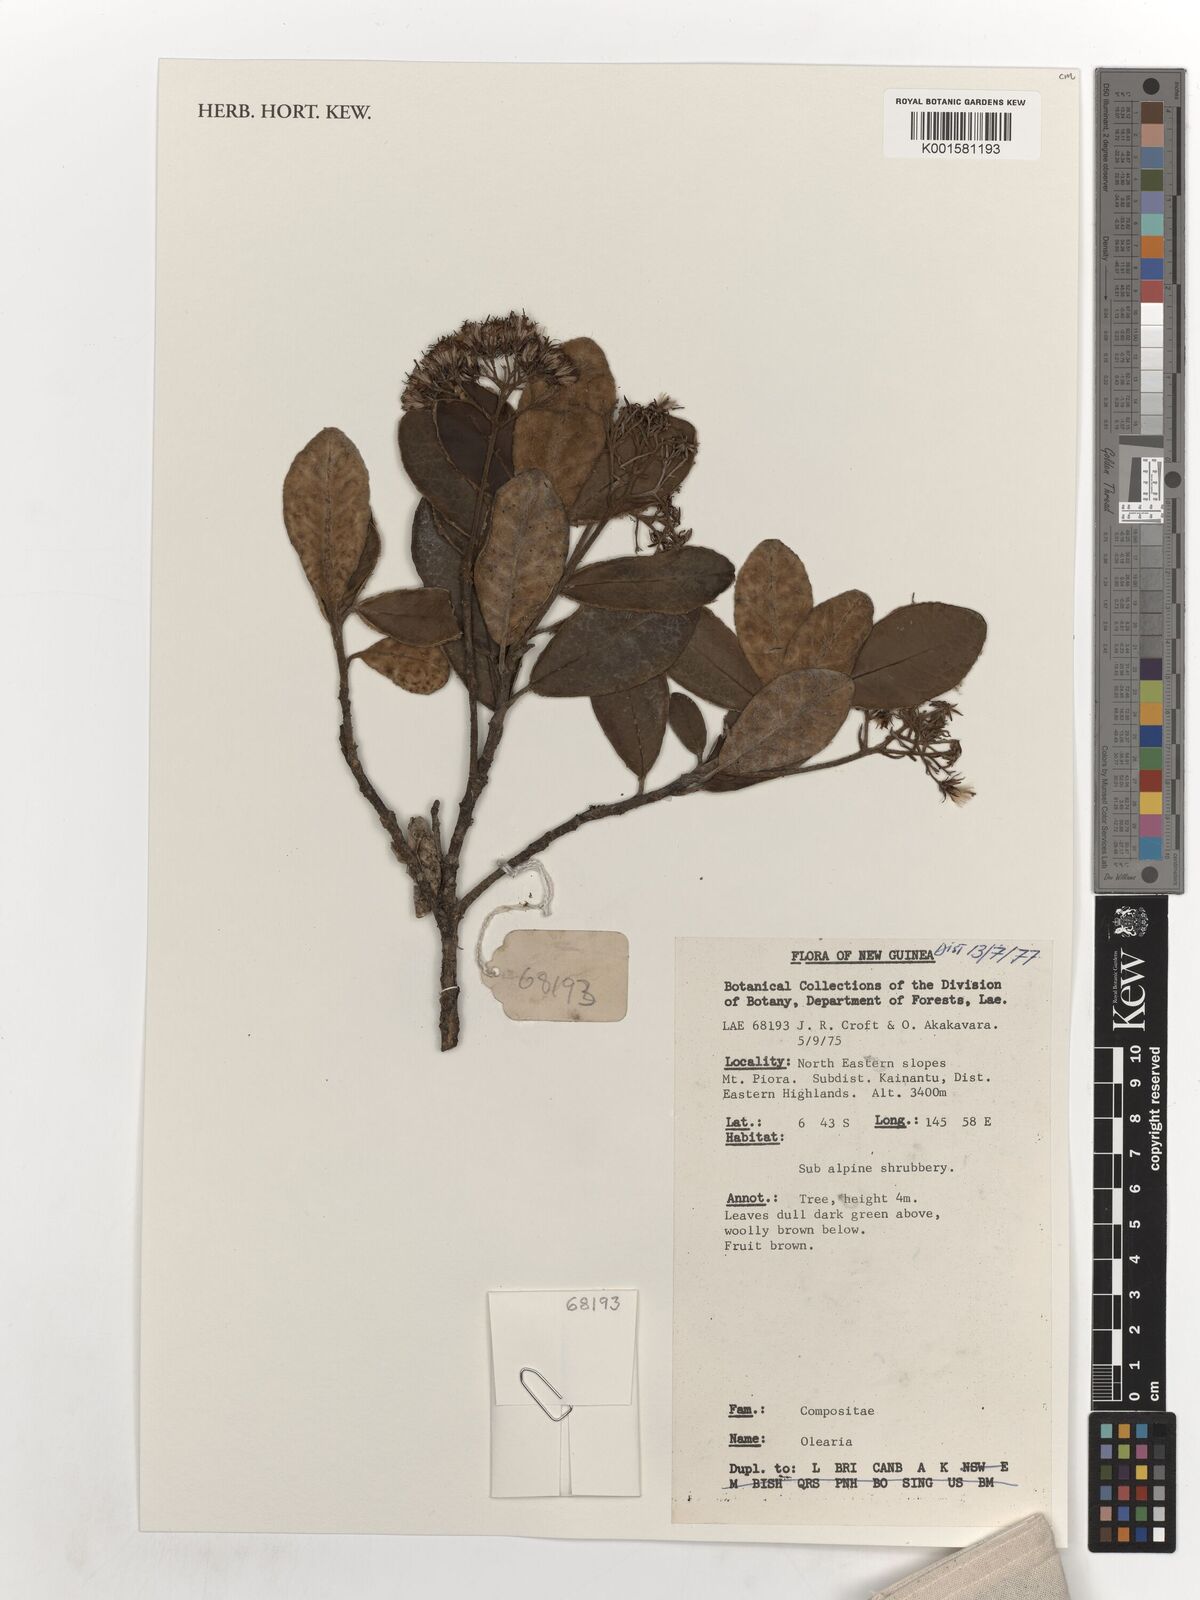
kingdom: Plantae
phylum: Tracheophyta
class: Magnoliopsida
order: Asterales
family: Asteraceae
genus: Olearia
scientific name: Olearia
